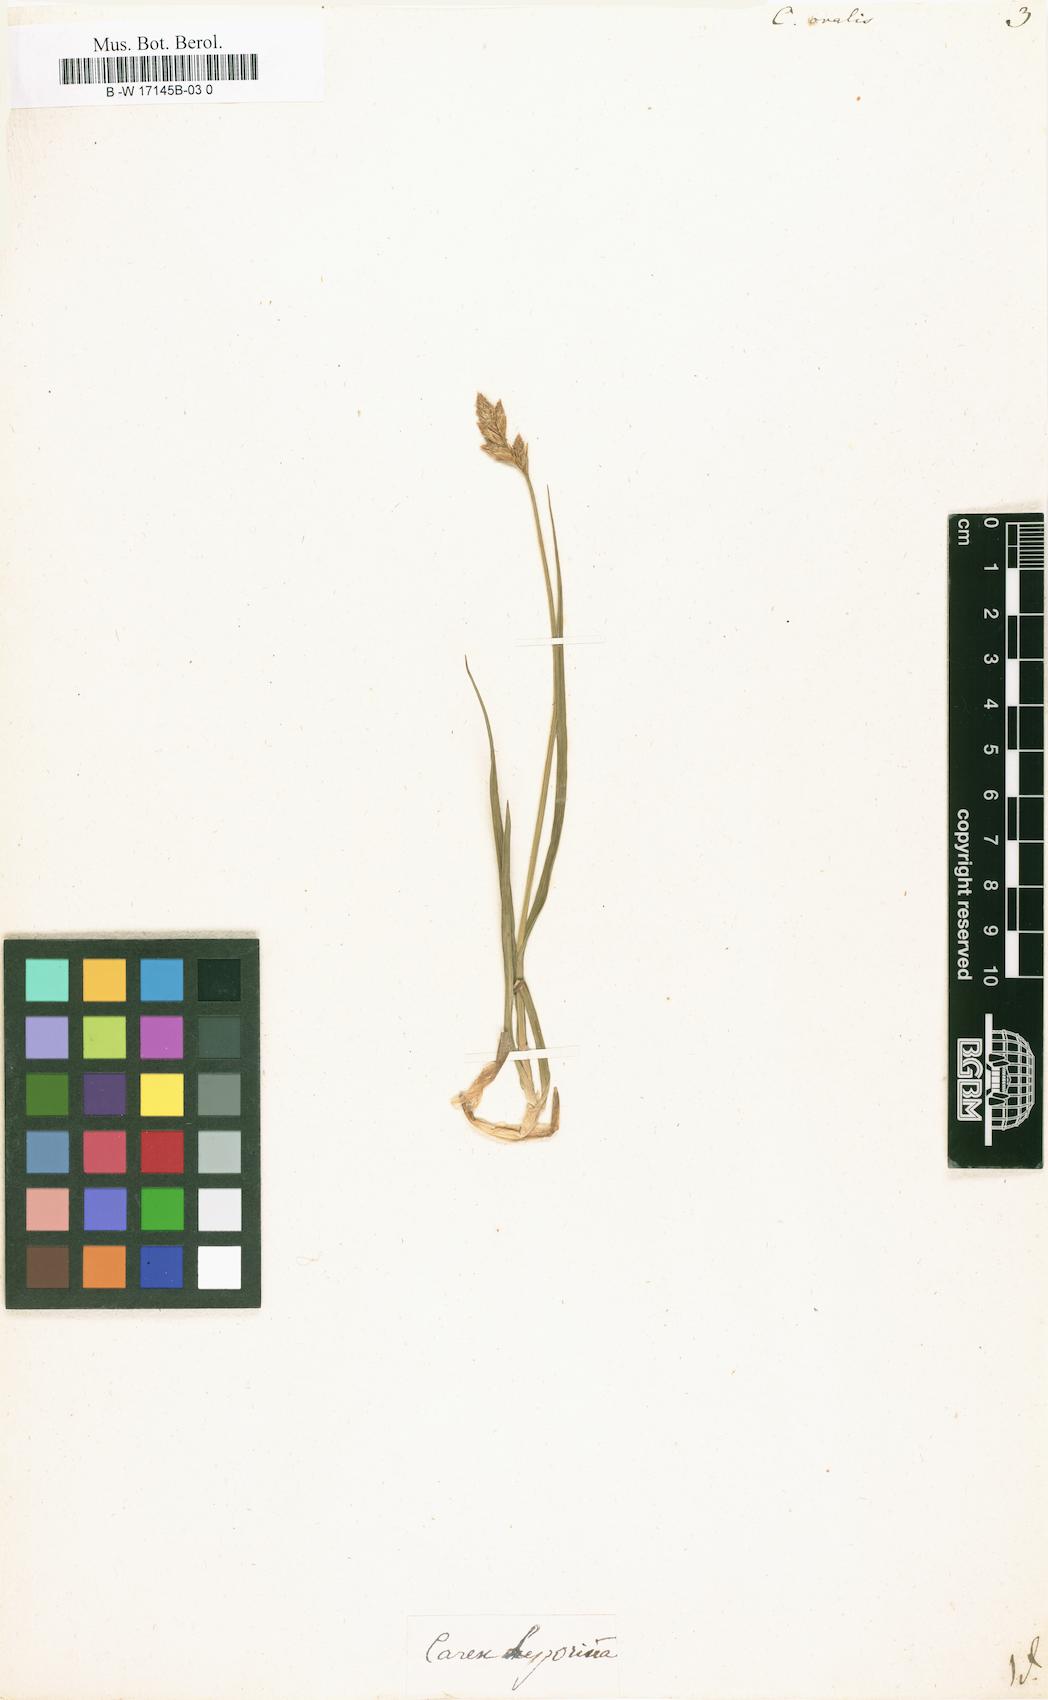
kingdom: Plantae
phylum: Tracheophyta
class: Liliopsida
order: Poales
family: Cyperaceae
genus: Carex
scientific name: Carex
